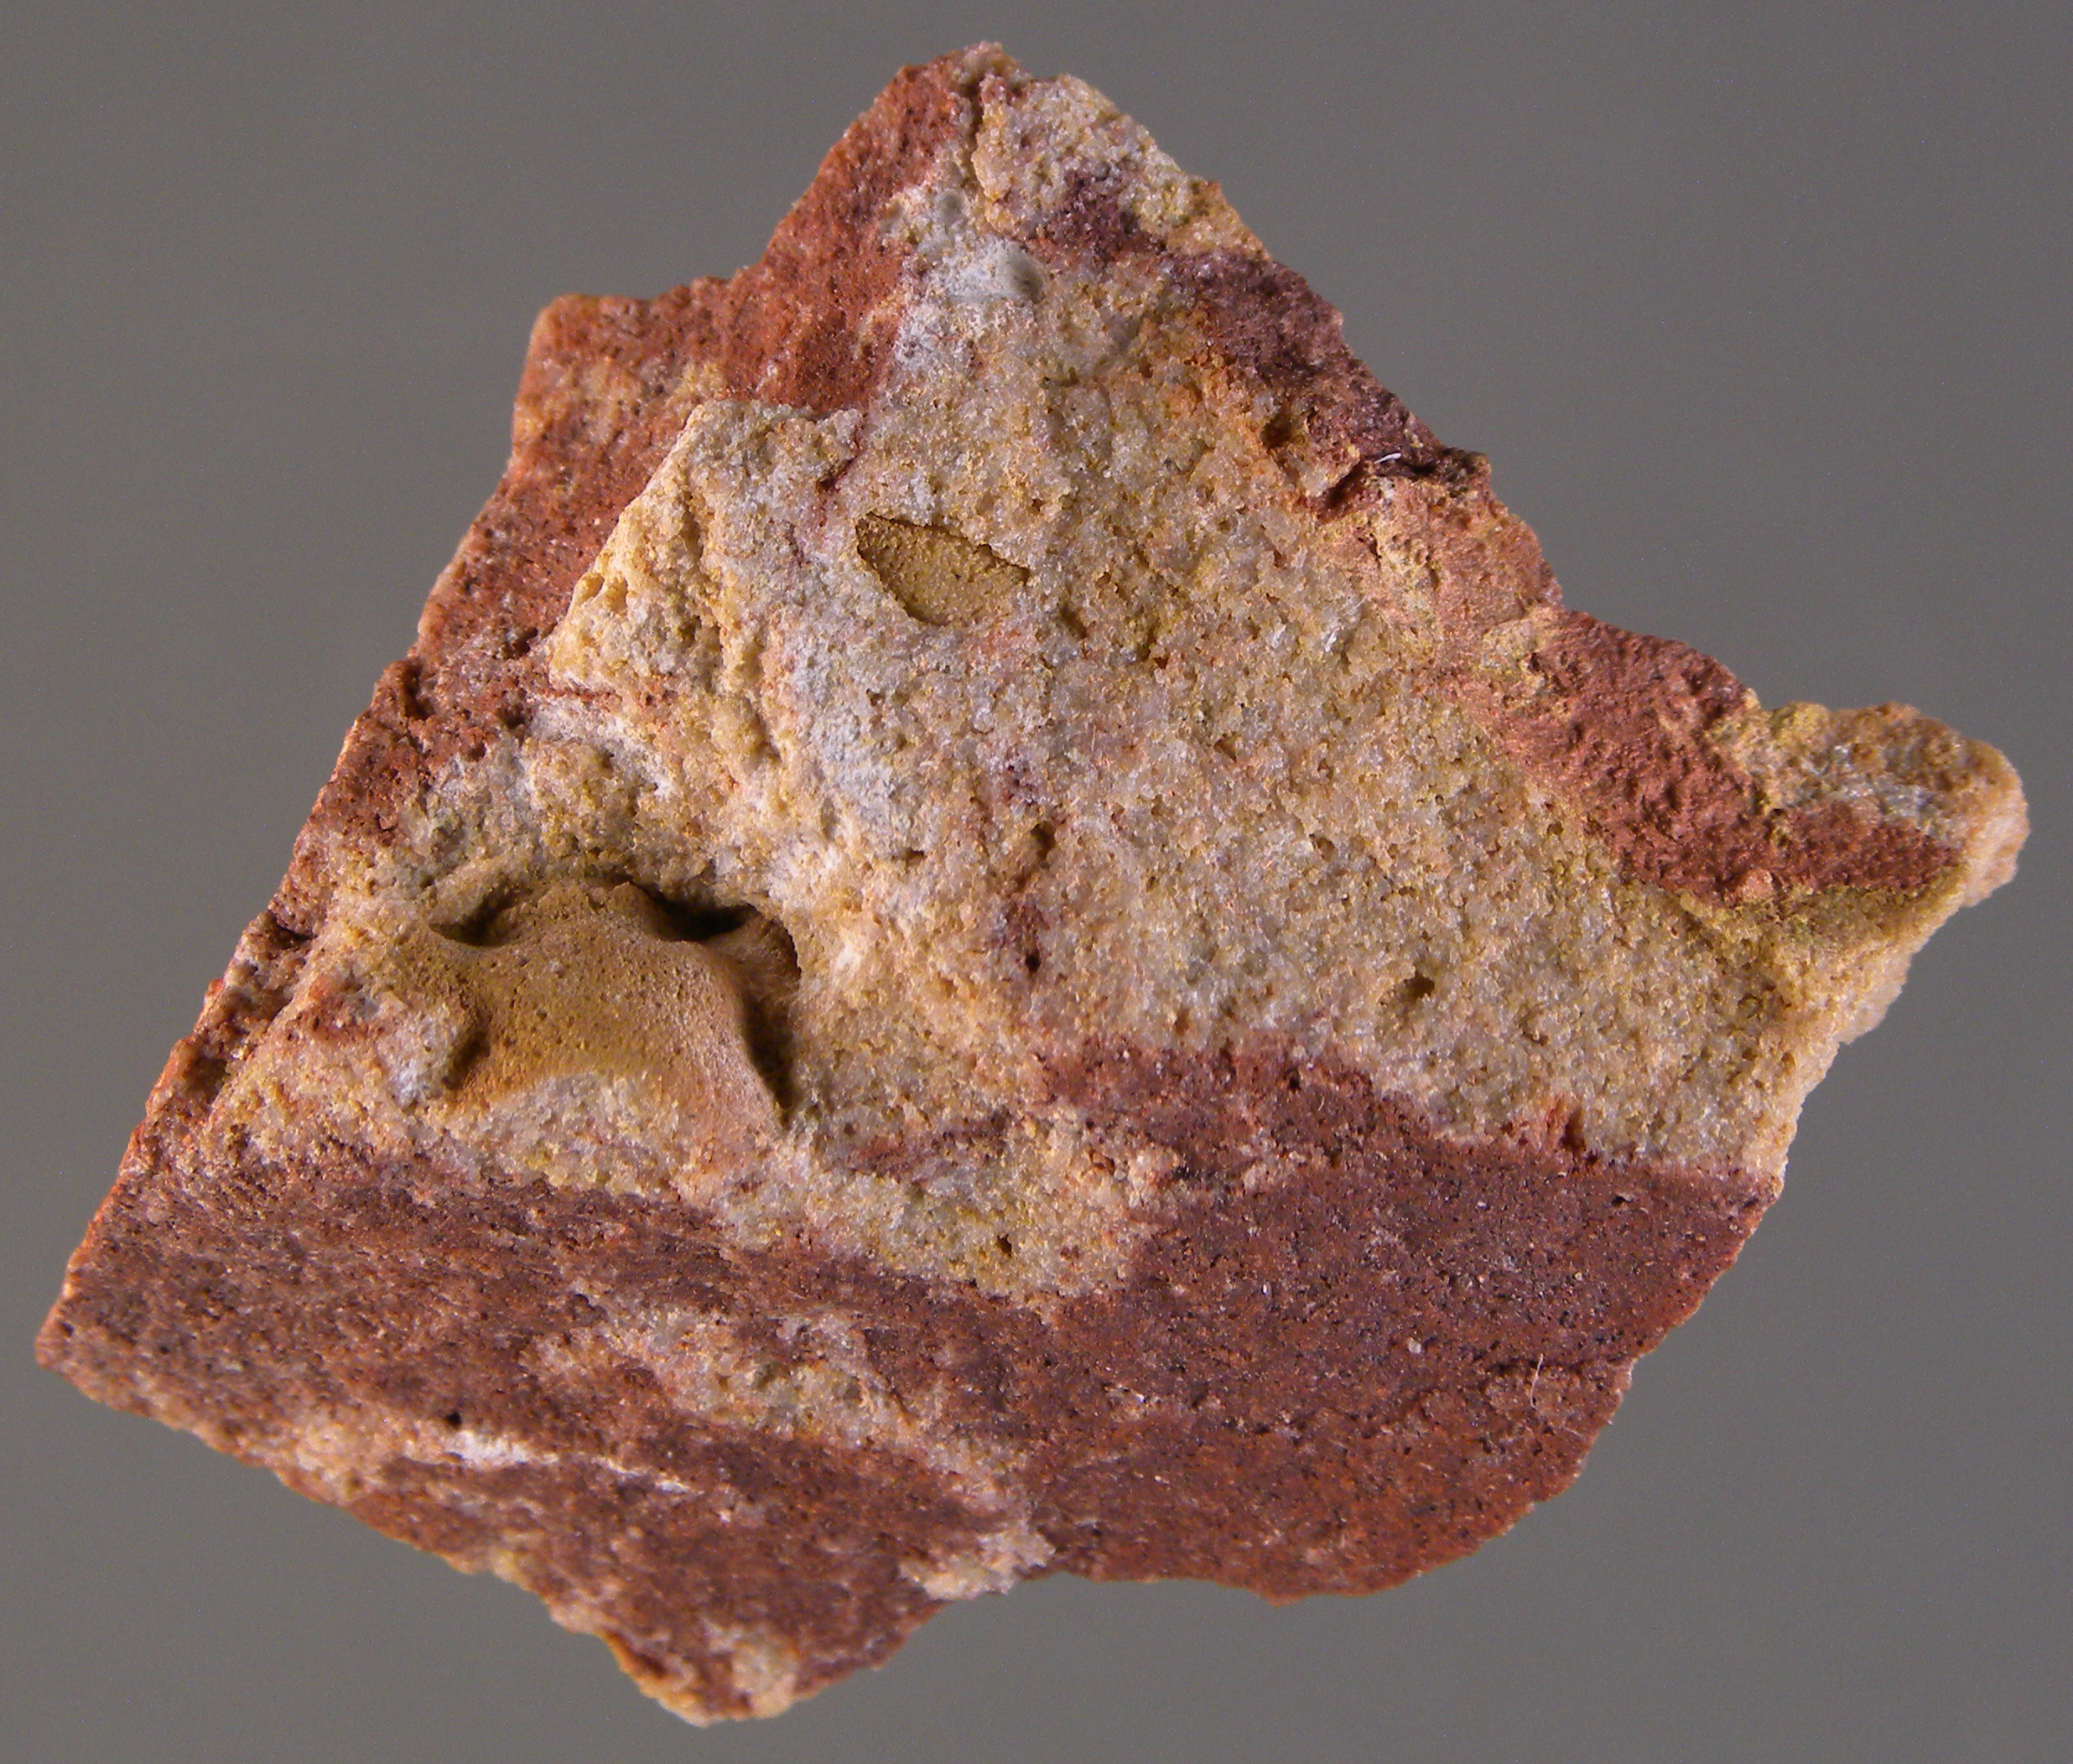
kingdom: Animalia
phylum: Arthropoda
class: Trilobita
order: Phacopida
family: Acastidae
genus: Acastava
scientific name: Acastava
